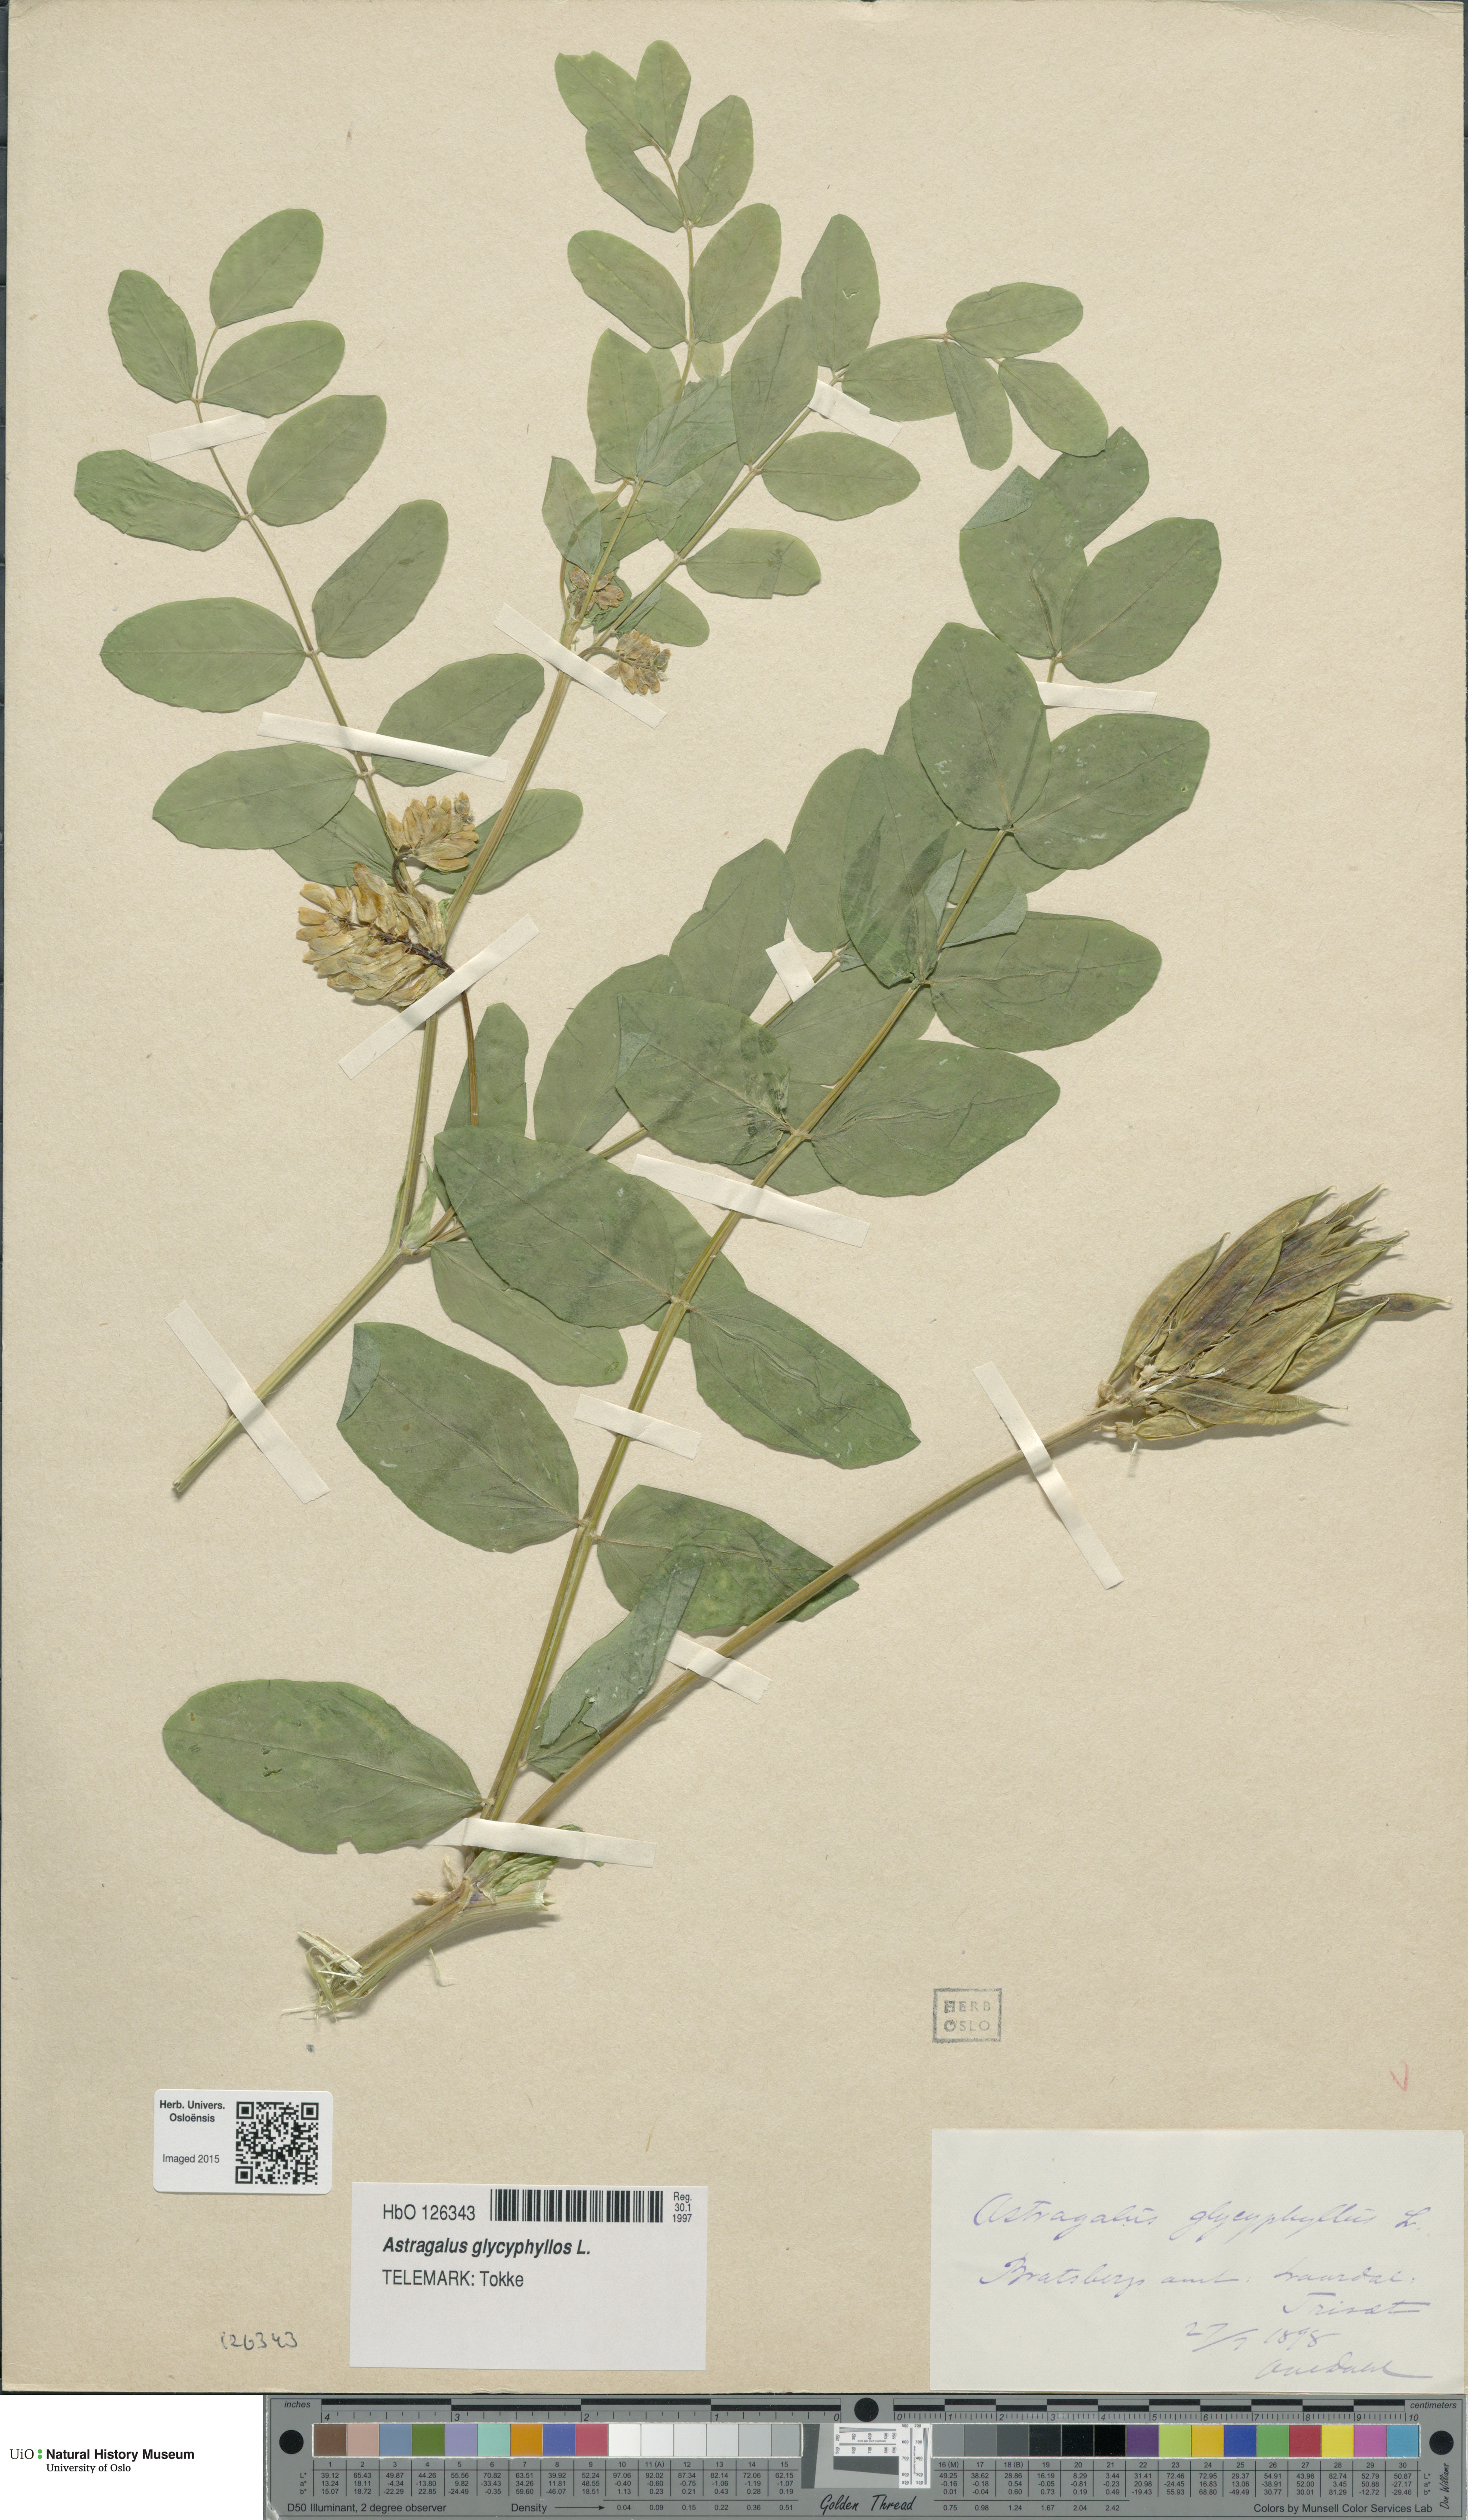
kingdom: Plantae
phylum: Tracheophyta
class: Magnoliopsida
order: Fabales
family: Fabaceae
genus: Astragalus
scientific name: Astragalus glycyphyllos
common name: Wild liquorice
